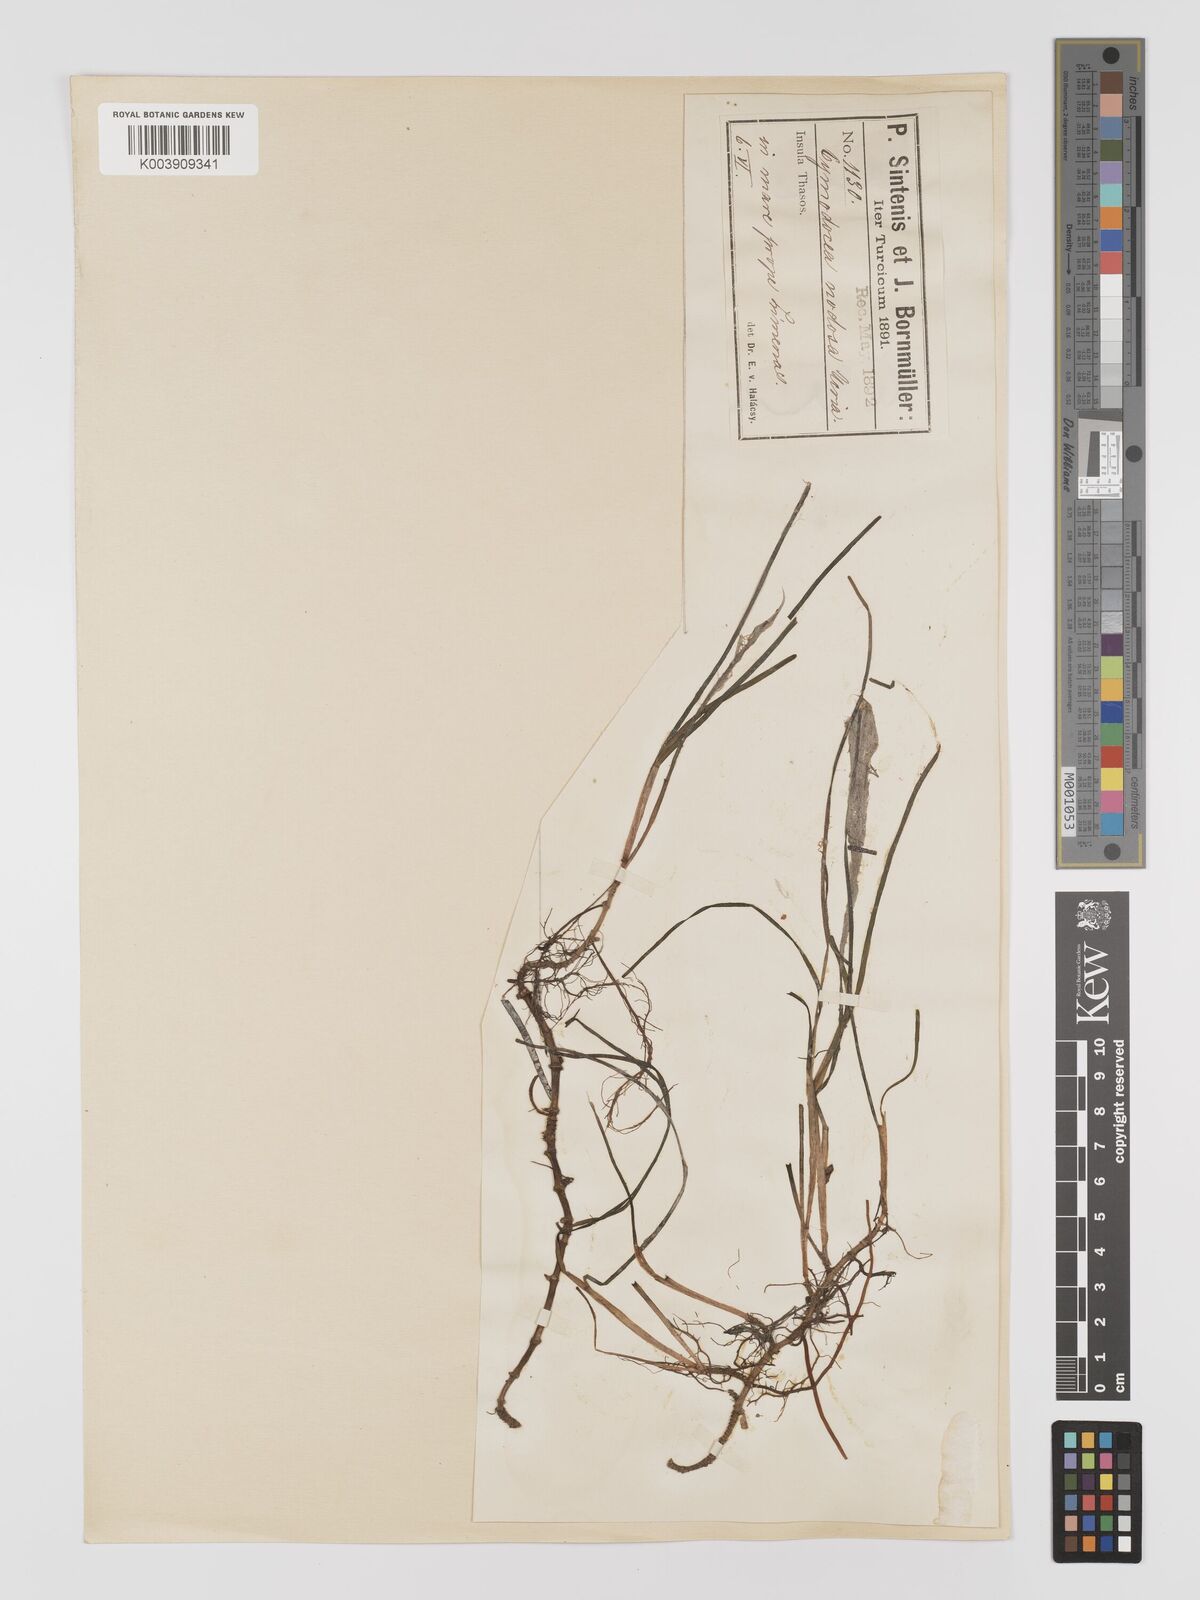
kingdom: Plantae
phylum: Tracheophyta
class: Liliopsida
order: Alismatales
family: Cymodoceaceae
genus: Cymodocea
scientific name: Cymodocea nodosa
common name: Slender seagrass
